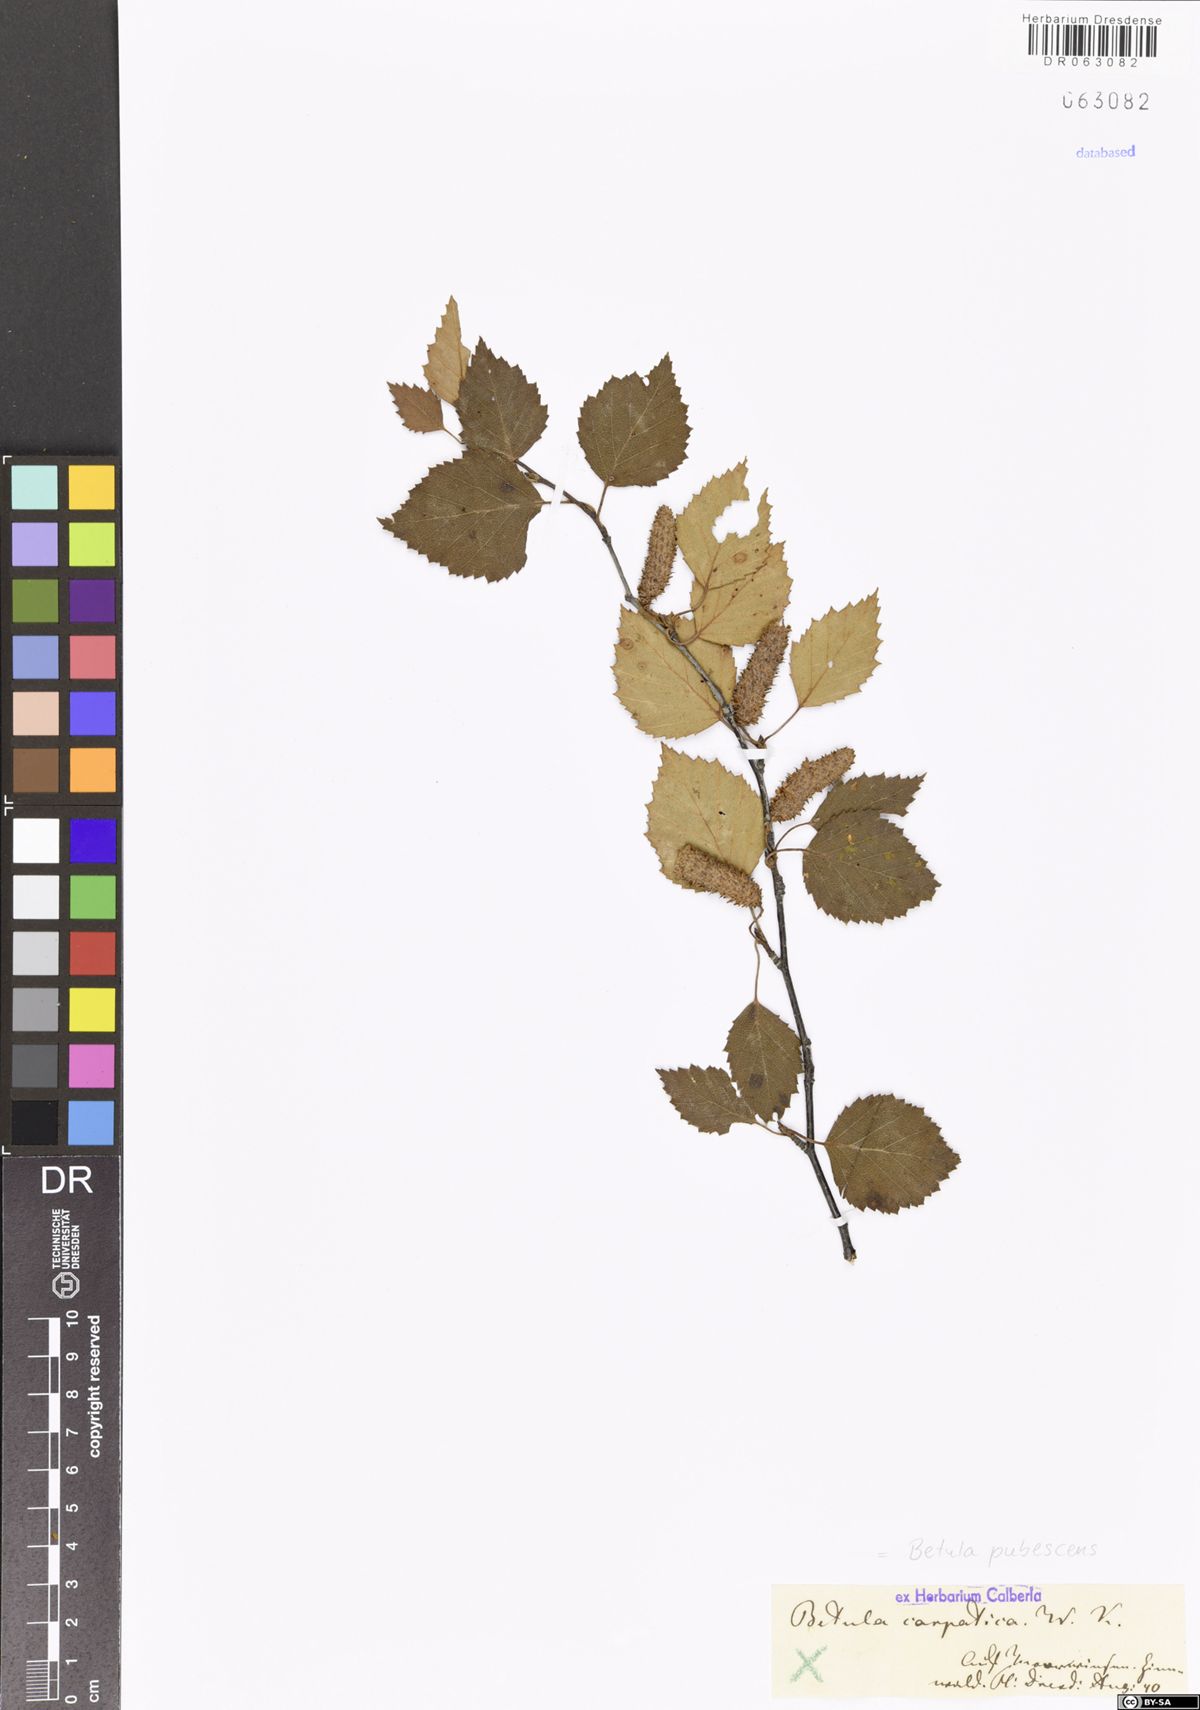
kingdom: Plantae
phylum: Tracheophyta
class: Magnoliopsida
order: Fagales
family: Betulaceae
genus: Betula
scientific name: Betula pubescens
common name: Downy birch
